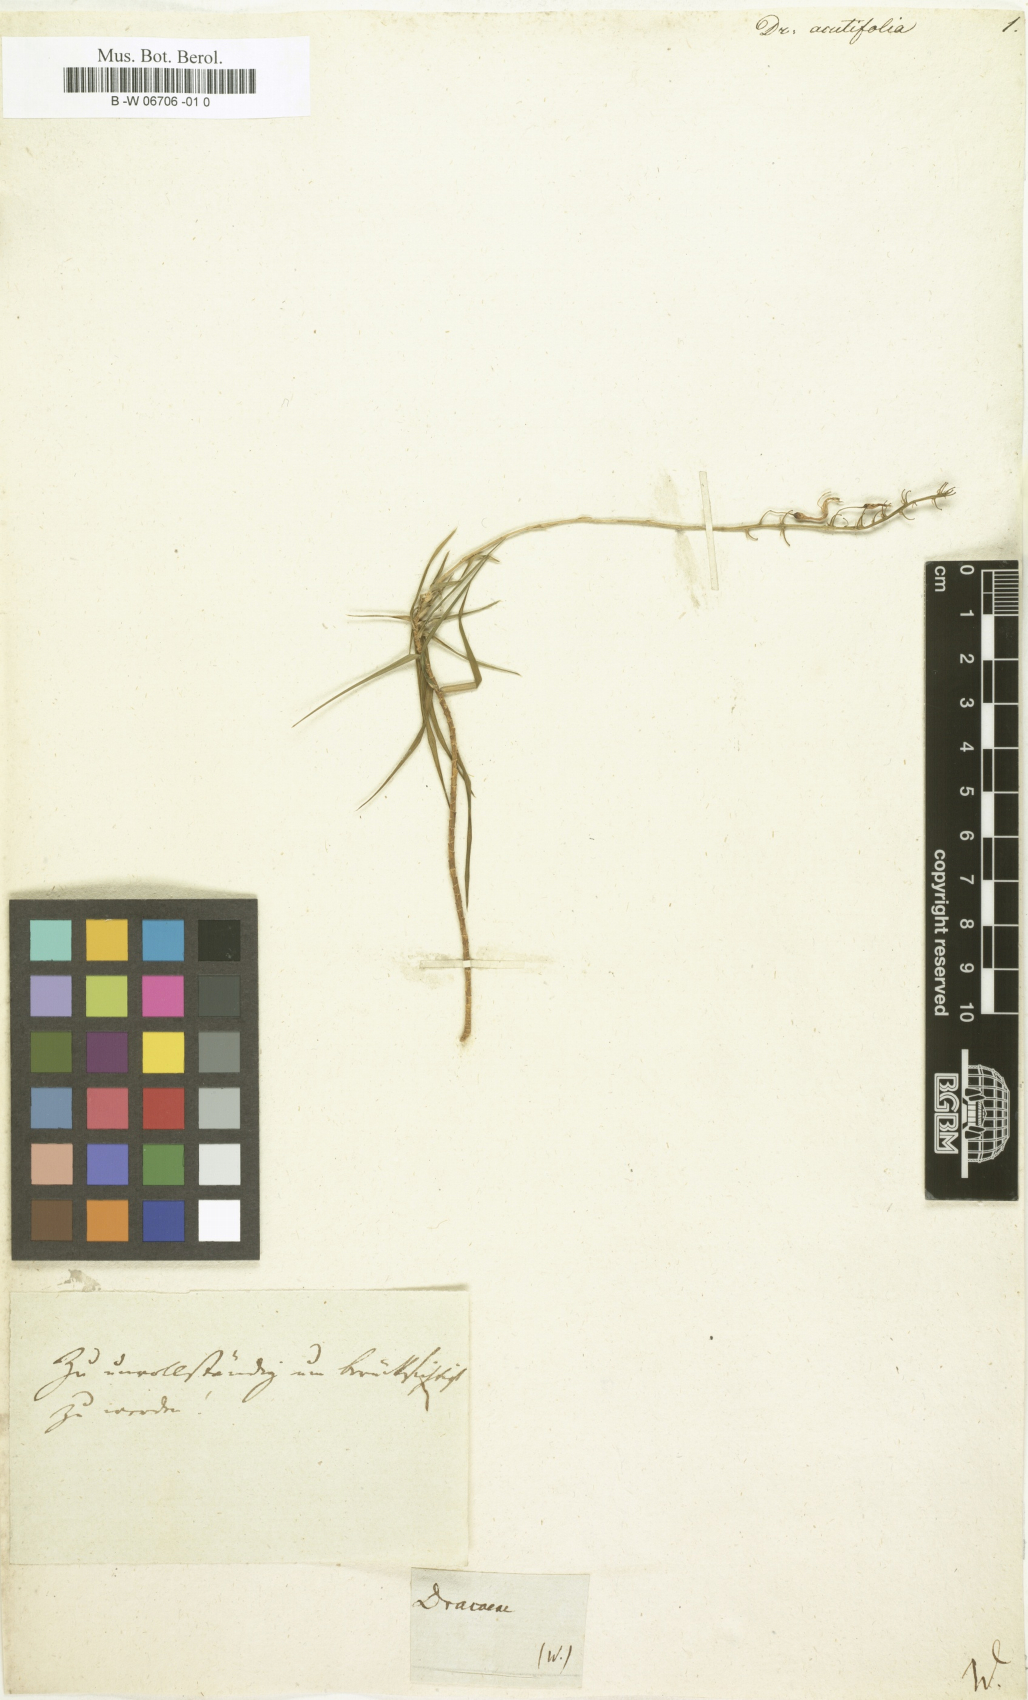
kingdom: Plantae
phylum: Tracheophyta
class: Liliopsida
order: Asparagales
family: Asparagaceae
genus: Dracaena
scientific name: Dracaena
